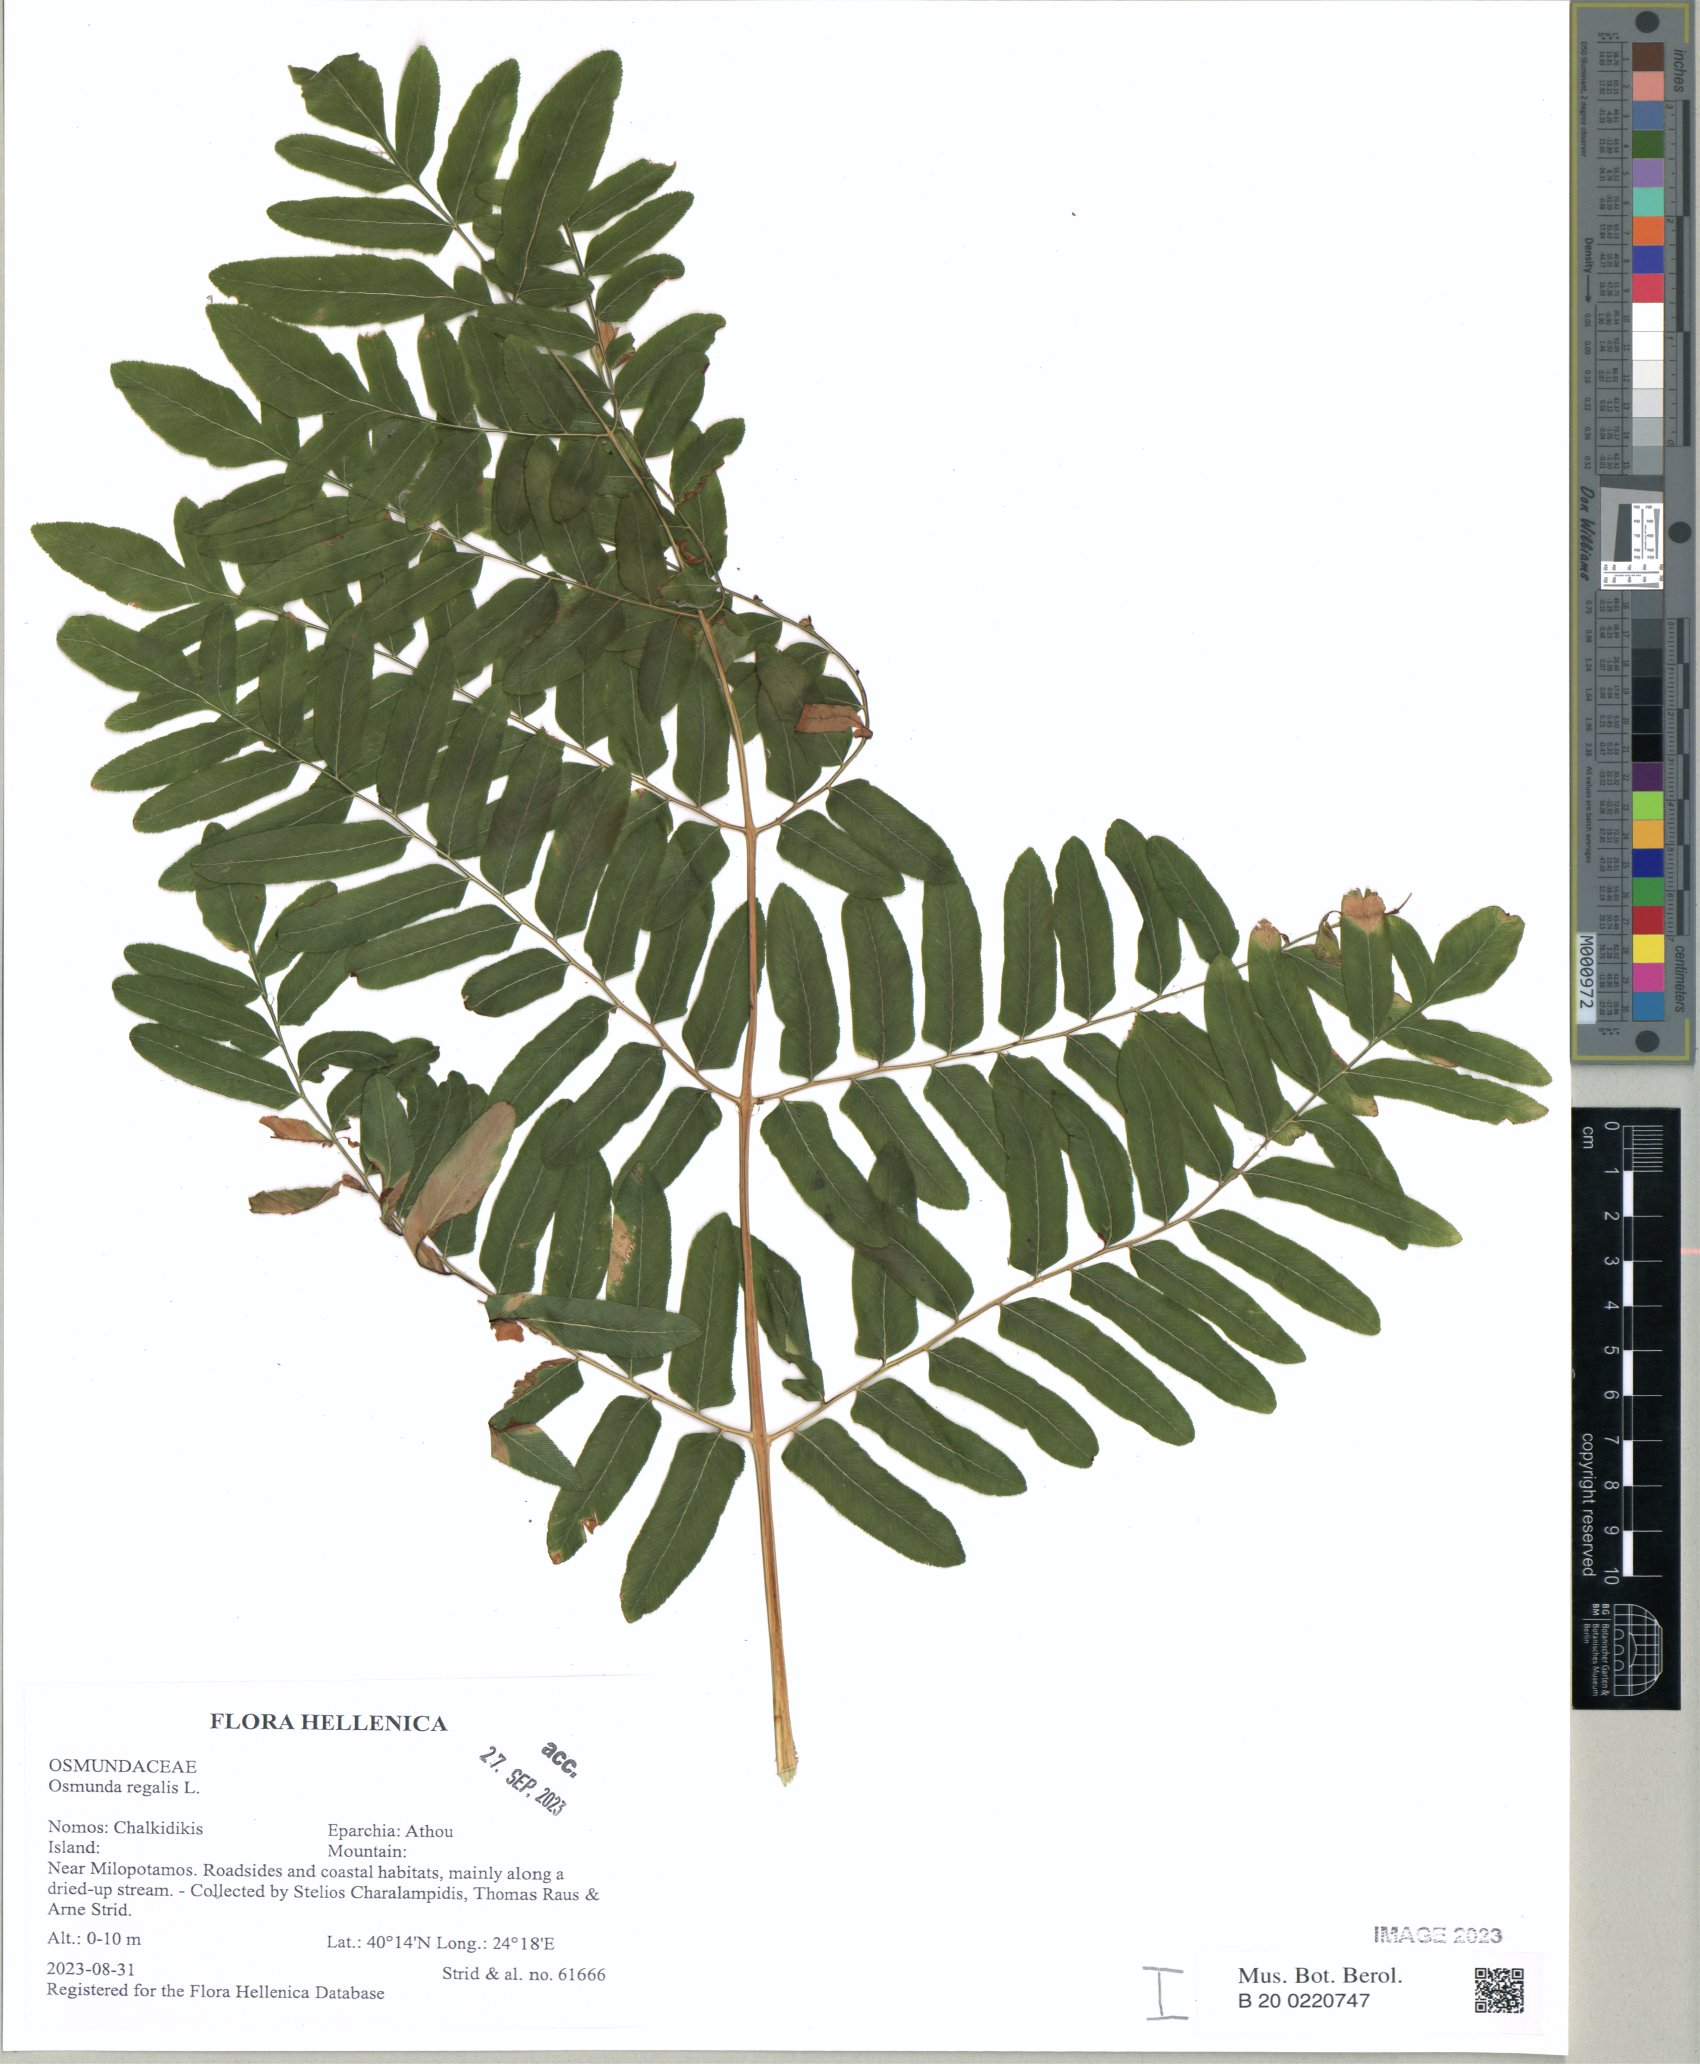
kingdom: Plantae
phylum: Tracheophyta
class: Polypodiopsida
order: Osmundales
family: Osmundaceae
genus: Osmunda
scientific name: Osmunda regalis
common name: Royal fern
